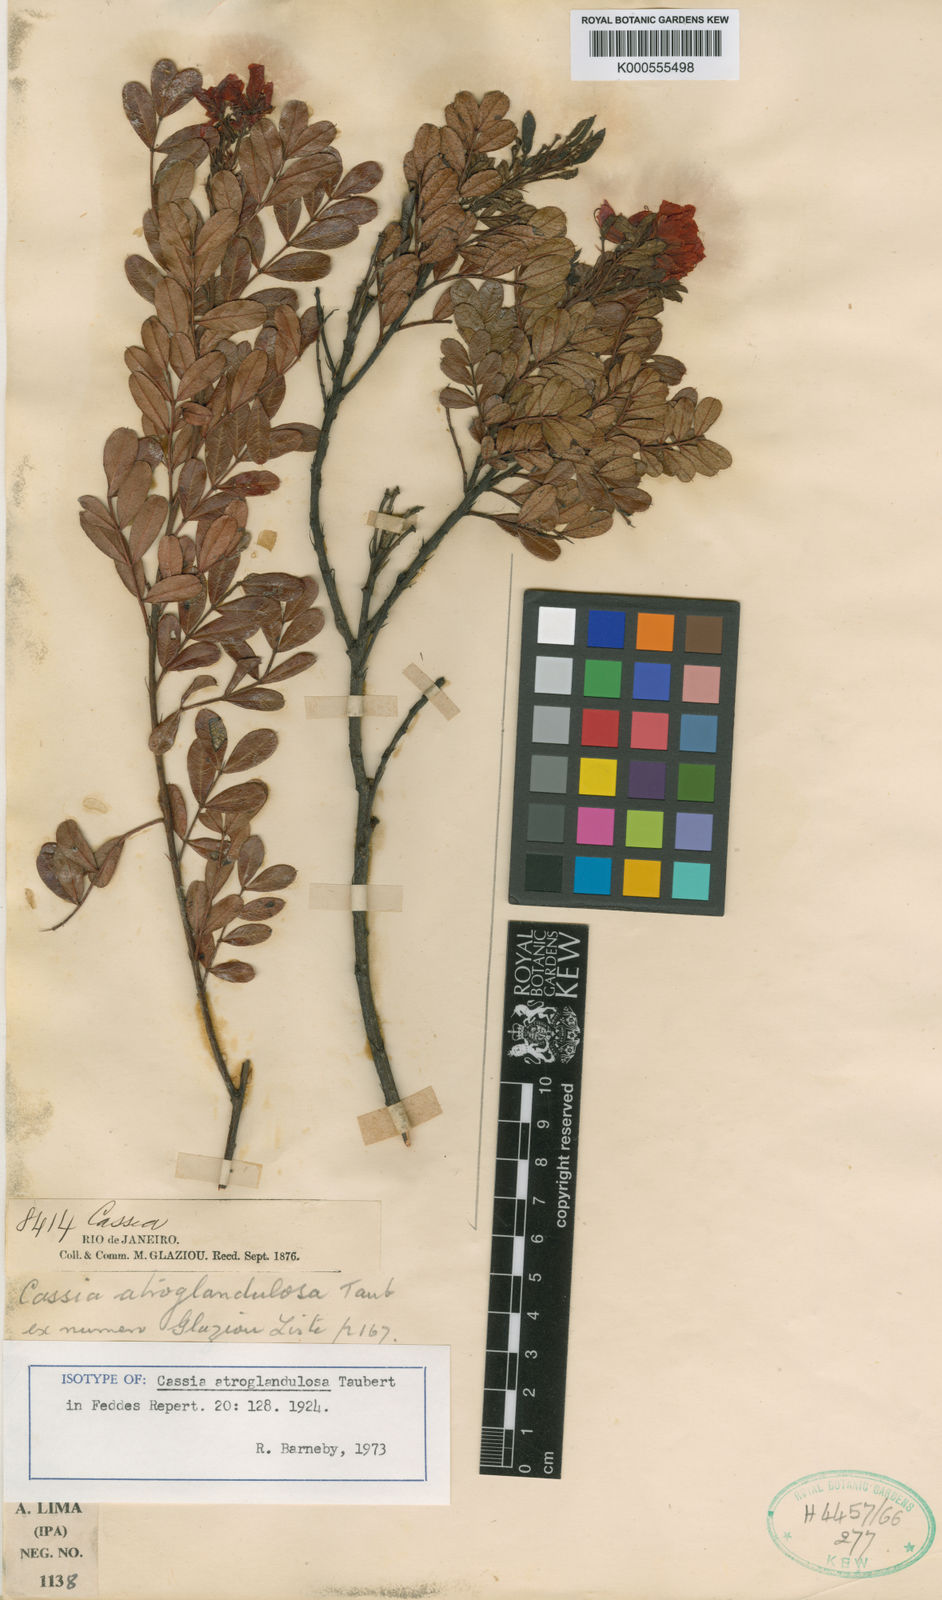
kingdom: Plantae
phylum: Tracheophyta
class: Magnoliopsida
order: Fabales
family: Fabaceae
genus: Chamaecrista
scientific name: Chamaecrista atroglandulosa
